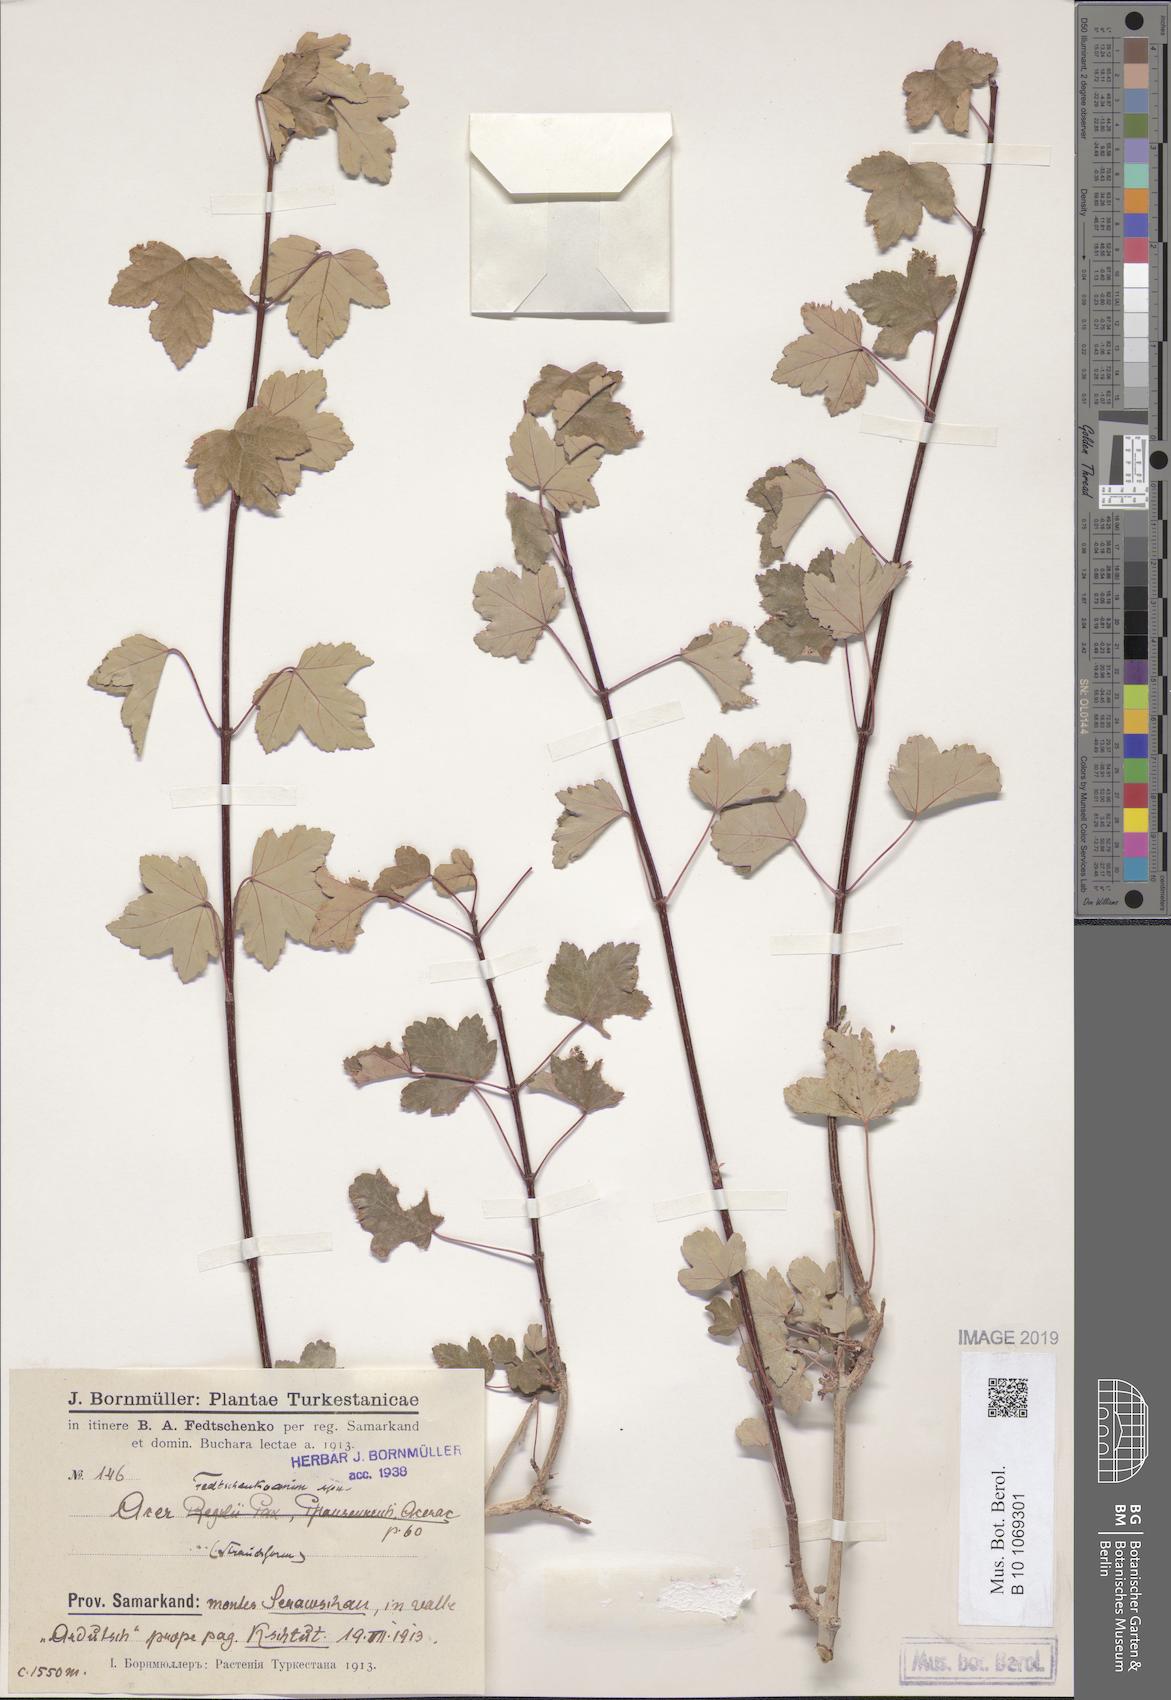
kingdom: Plantae
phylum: Tracheophyta
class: Magnoliopsida
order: Sapindales
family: Sapindaceae
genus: Acer
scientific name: Acer pentapomicum
